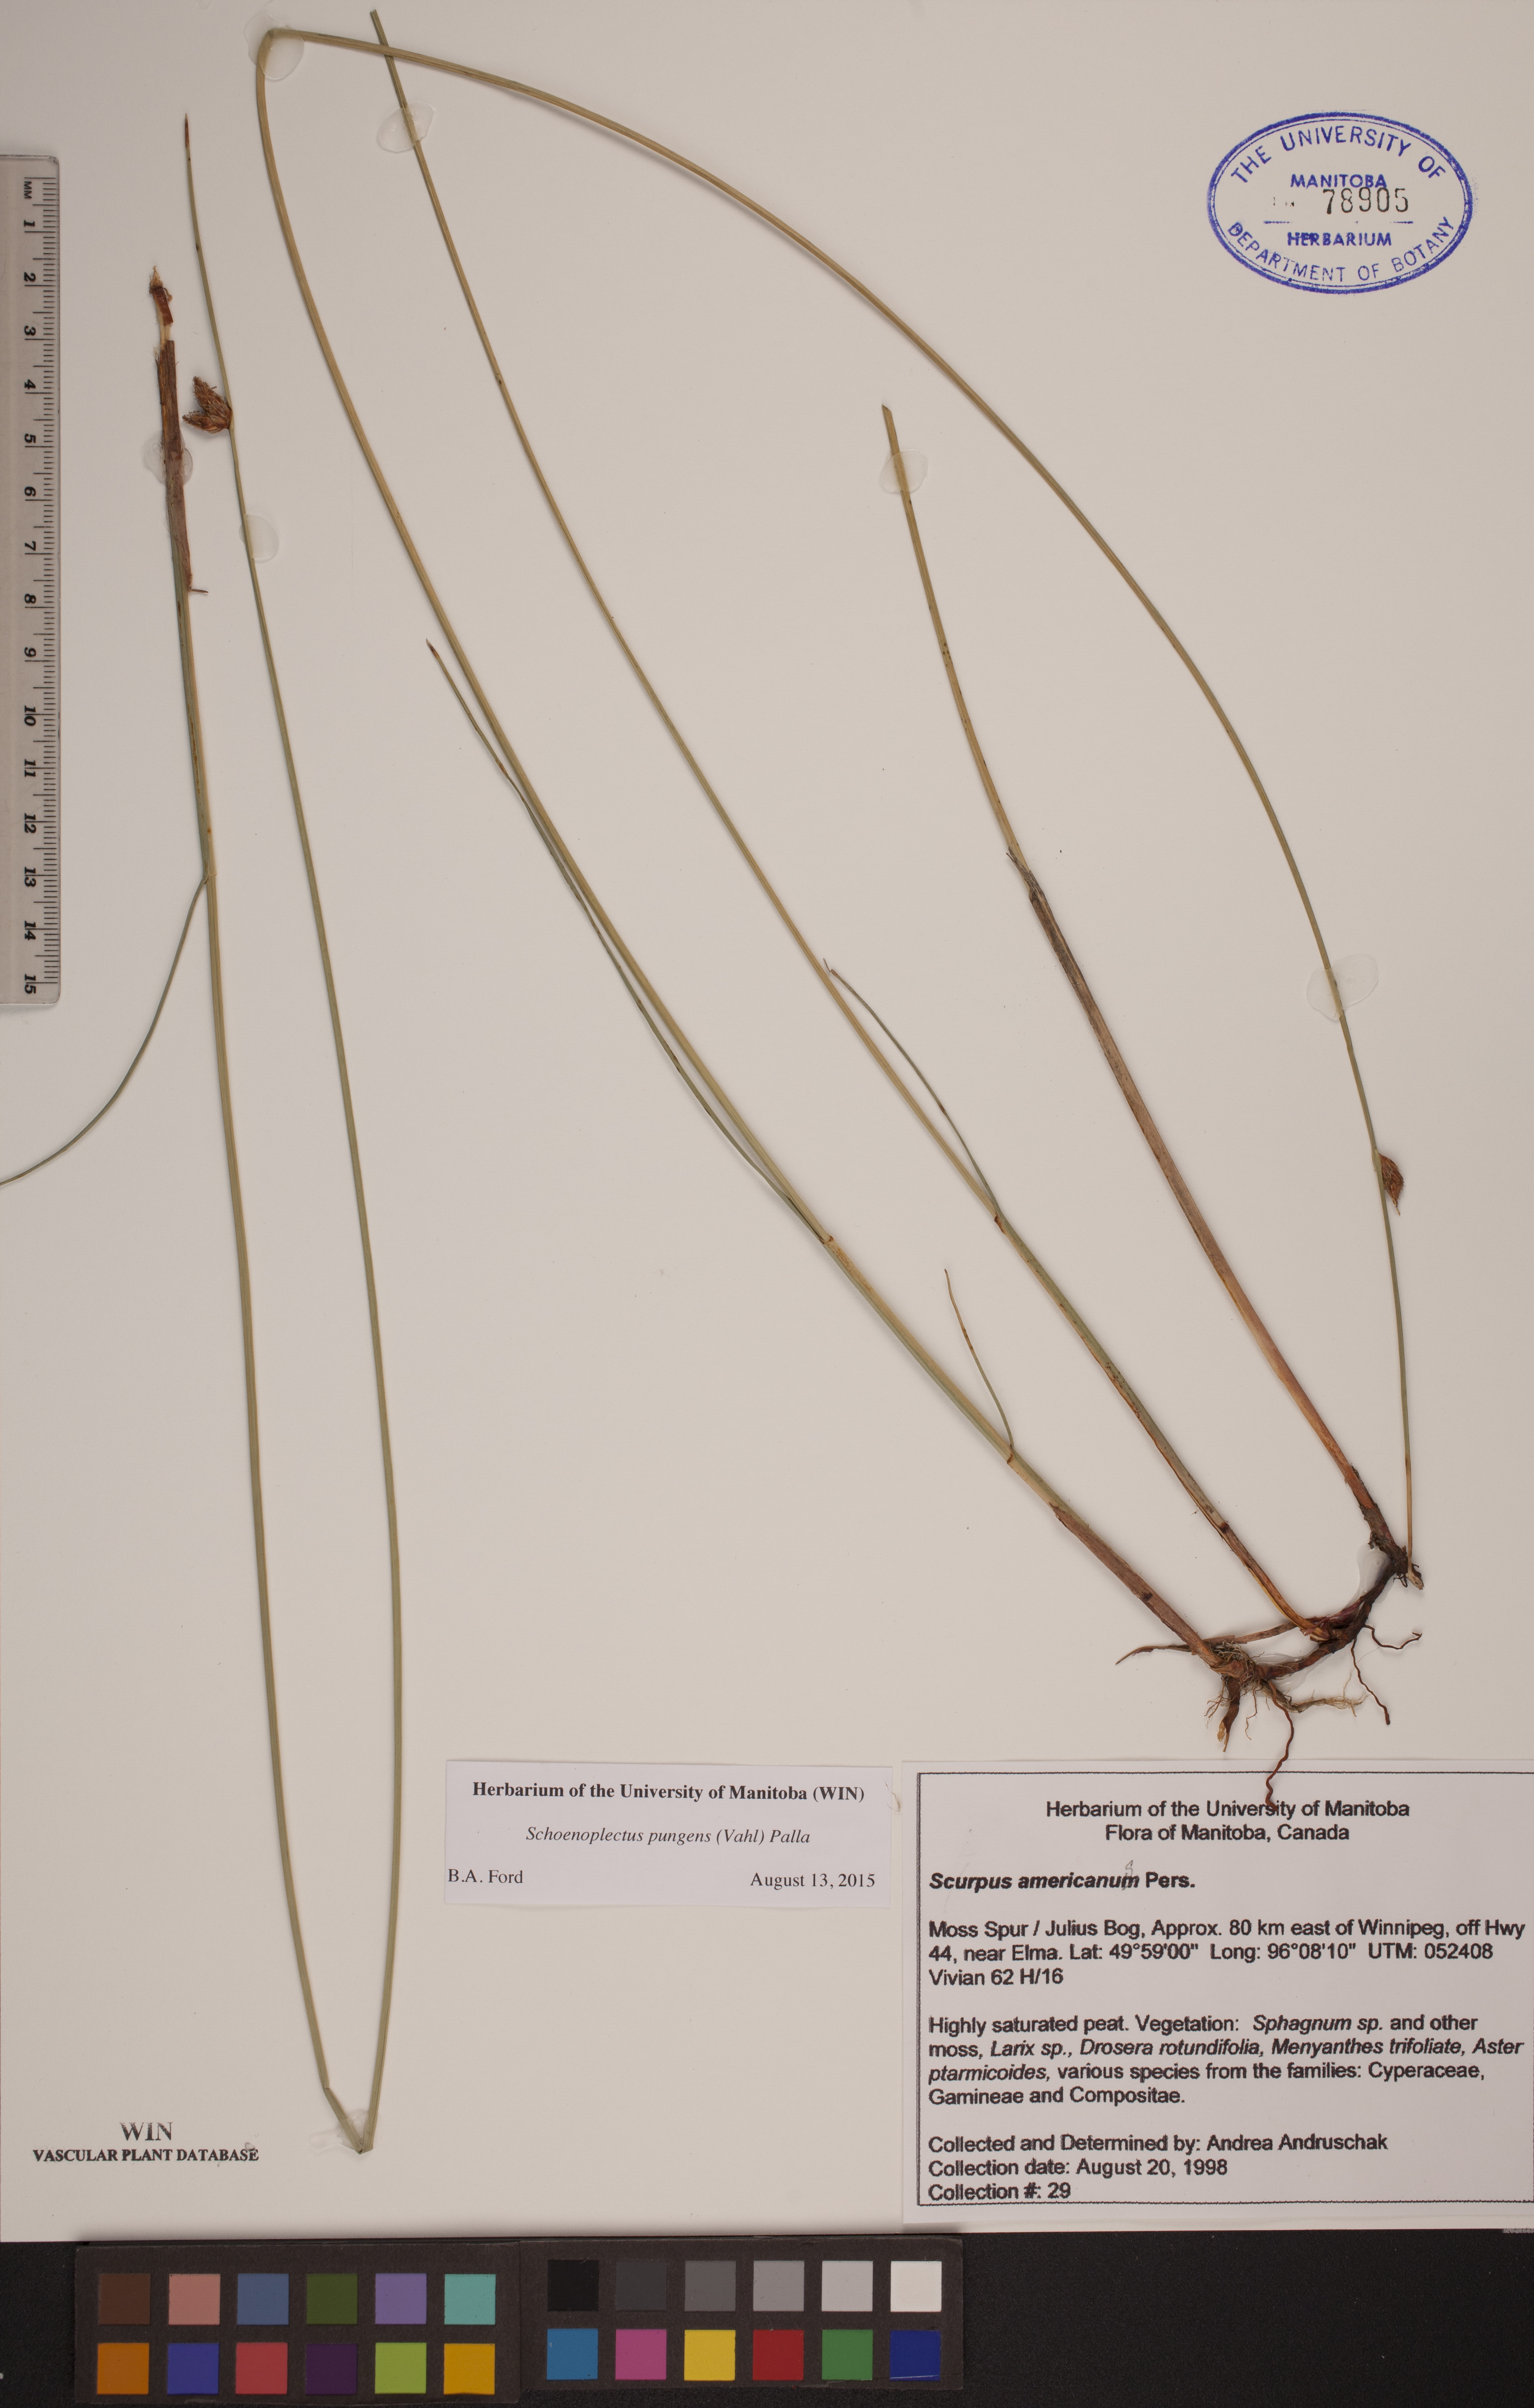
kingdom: Plantae
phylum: Tracheophyta
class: Liliopsida
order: Poales
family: Cyperaceae
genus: Schoenoplectus
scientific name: Schoenoplectus pungens
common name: Sharp club-rush
